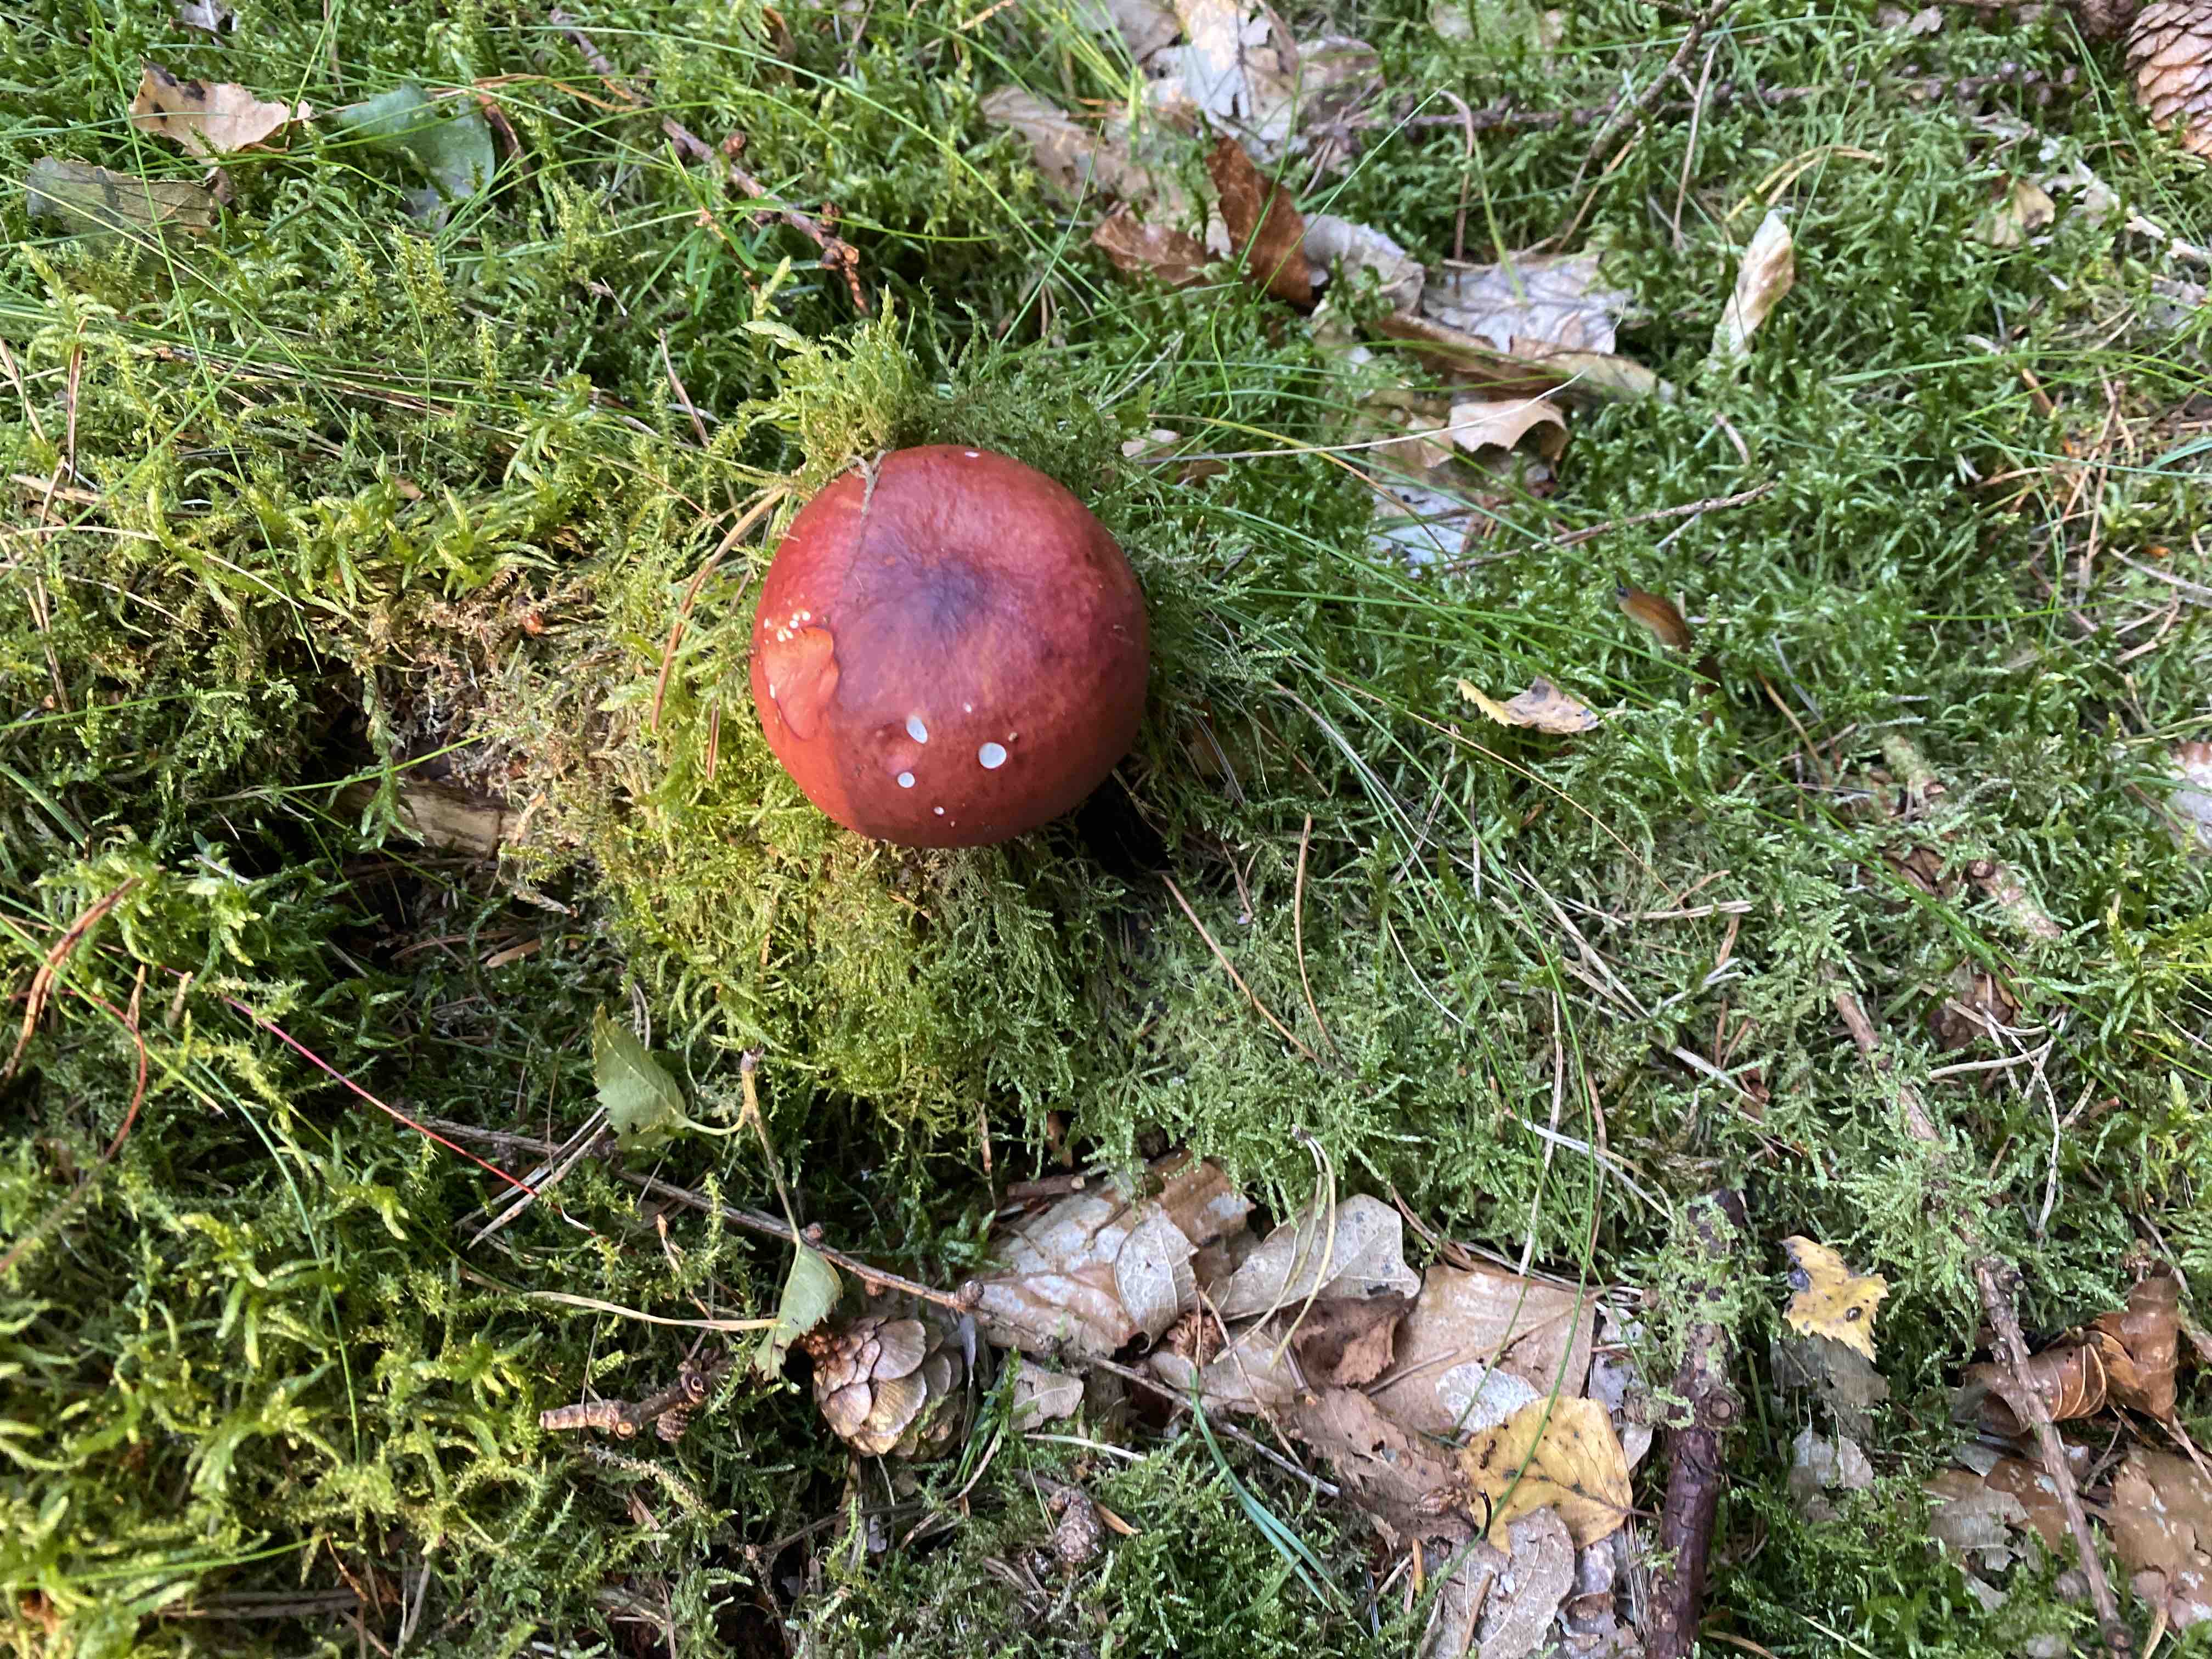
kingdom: Fungi
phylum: Basidiomycota
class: Agaricomycetes
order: Russulales
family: Russulaceae
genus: Russula
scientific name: Russula paludosa
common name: prægtig skørhat
